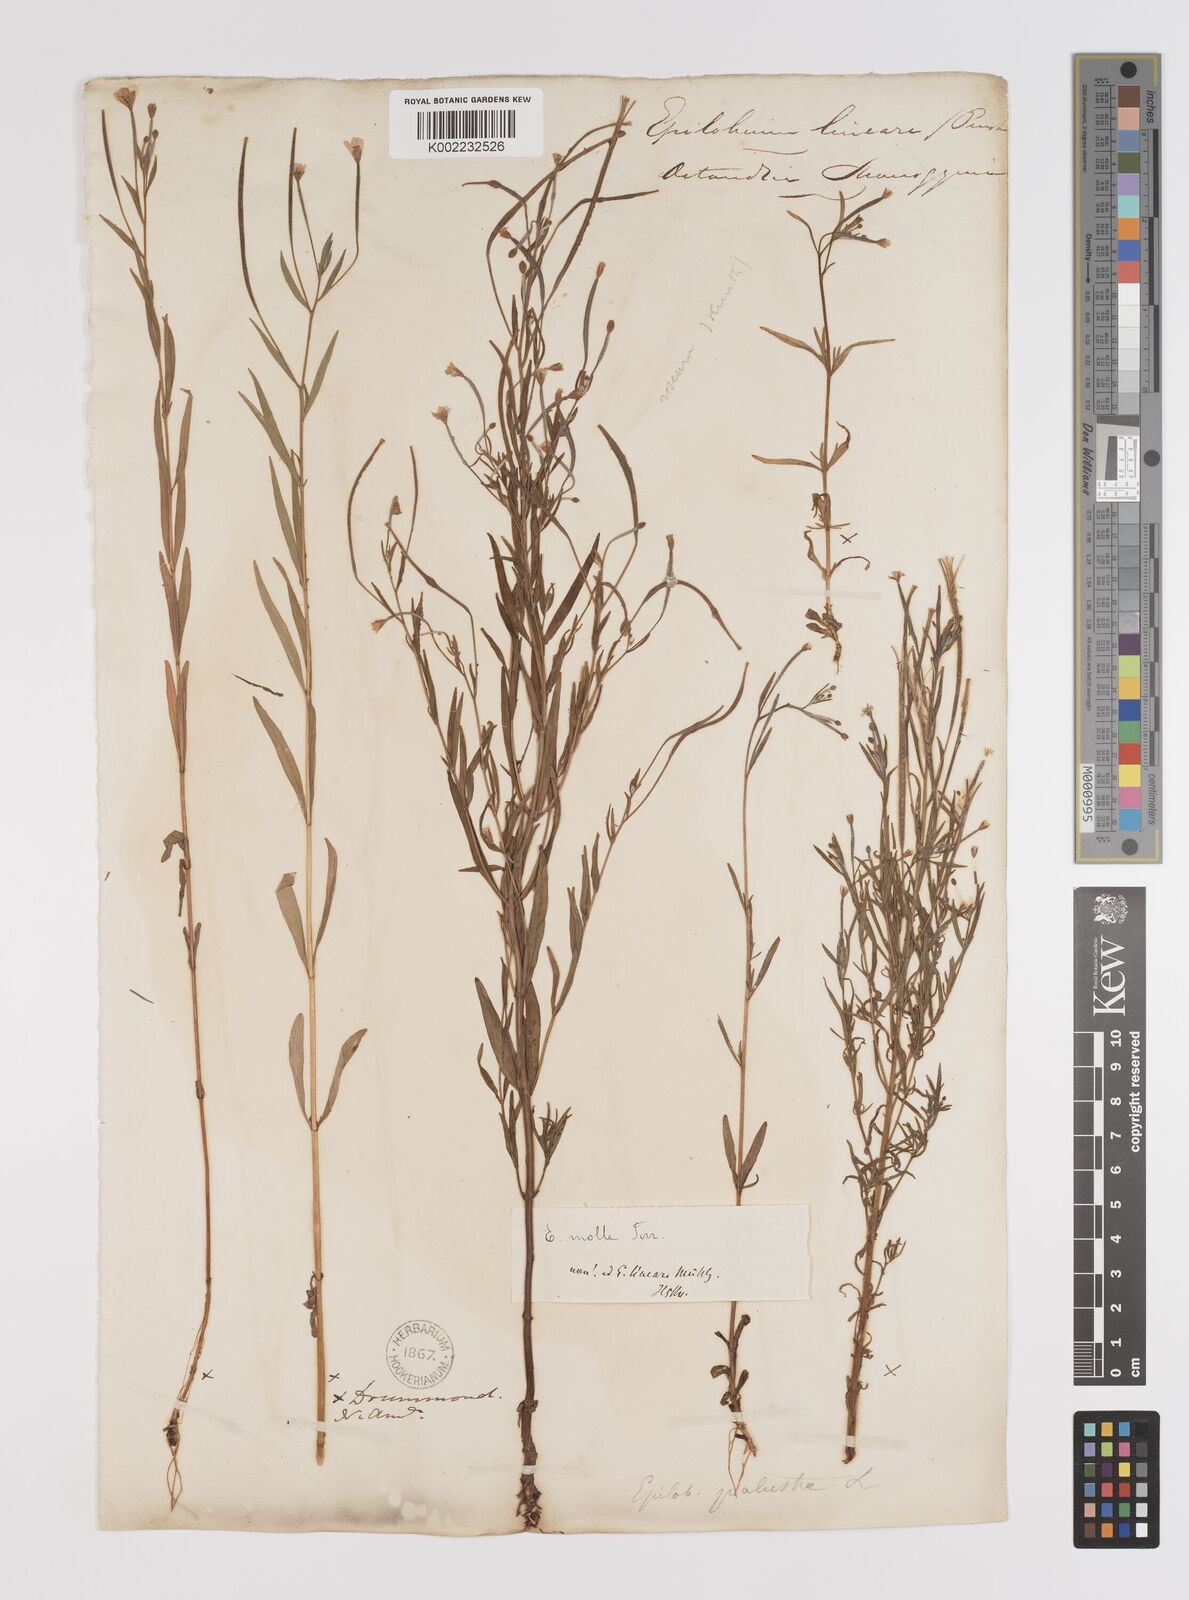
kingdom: Plantae
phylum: Tracheophyta
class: Magnoliopsida
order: Myrtales
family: Onagraceae
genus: Epilobium
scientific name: Epilobium palustre
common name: Marsh willowherb
